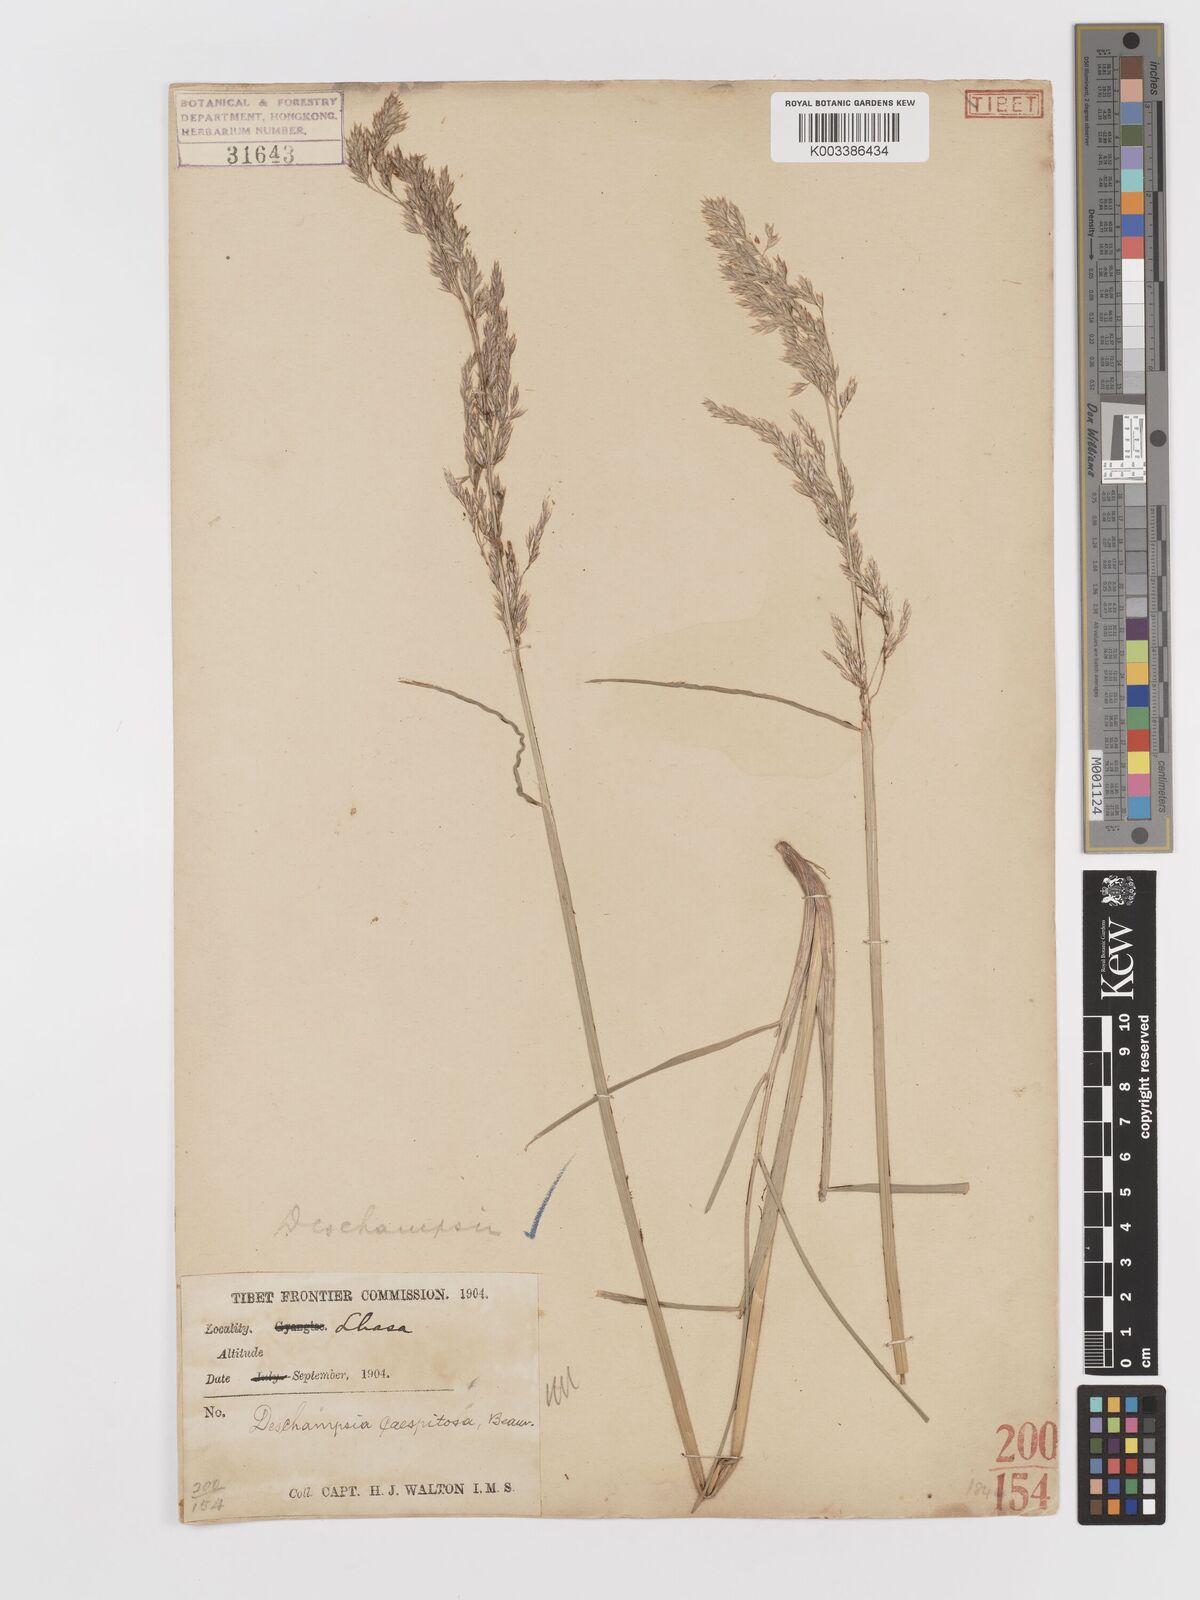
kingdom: Plantae
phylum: Tracheophyta
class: Liliopsida
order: Poales
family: Poaceae
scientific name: Poaceae
